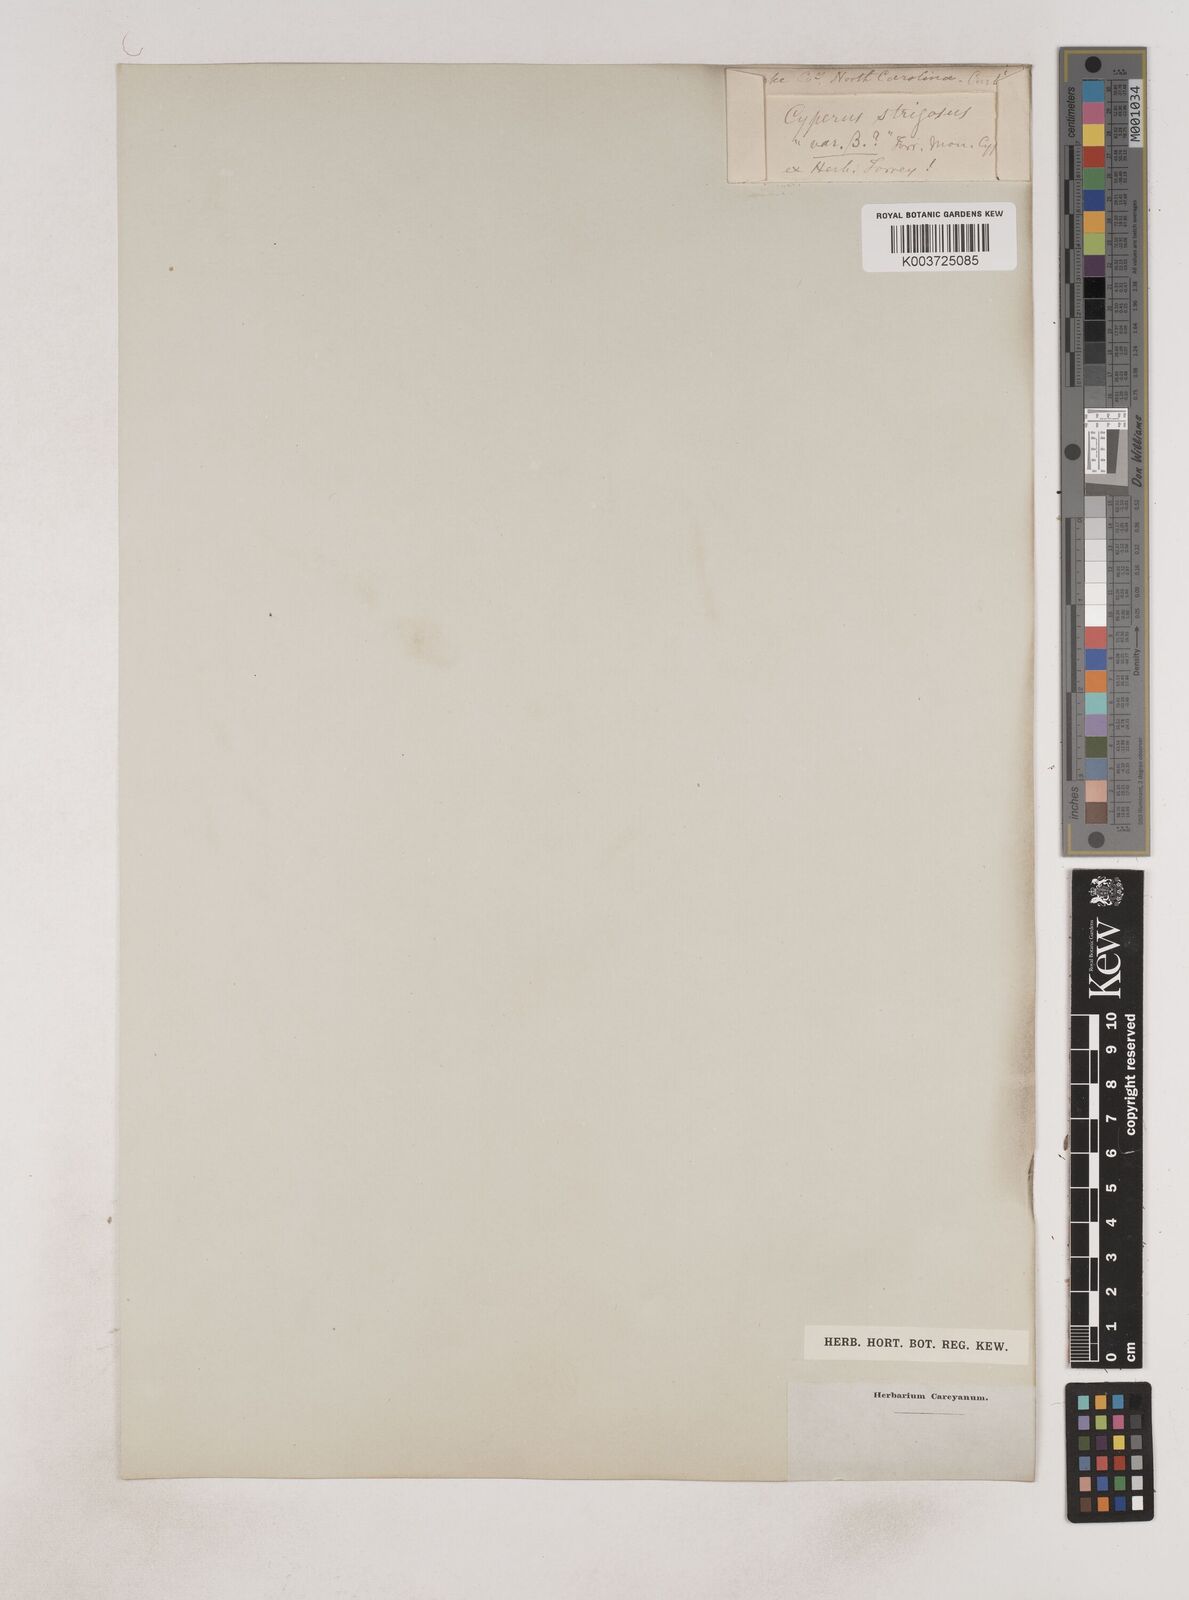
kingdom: Plantae
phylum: Tracheophyta
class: Liliopsida
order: Poales
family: Cyperaceae
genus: Cyperus
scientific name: Cyperus strigosus
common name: False nutsedge
